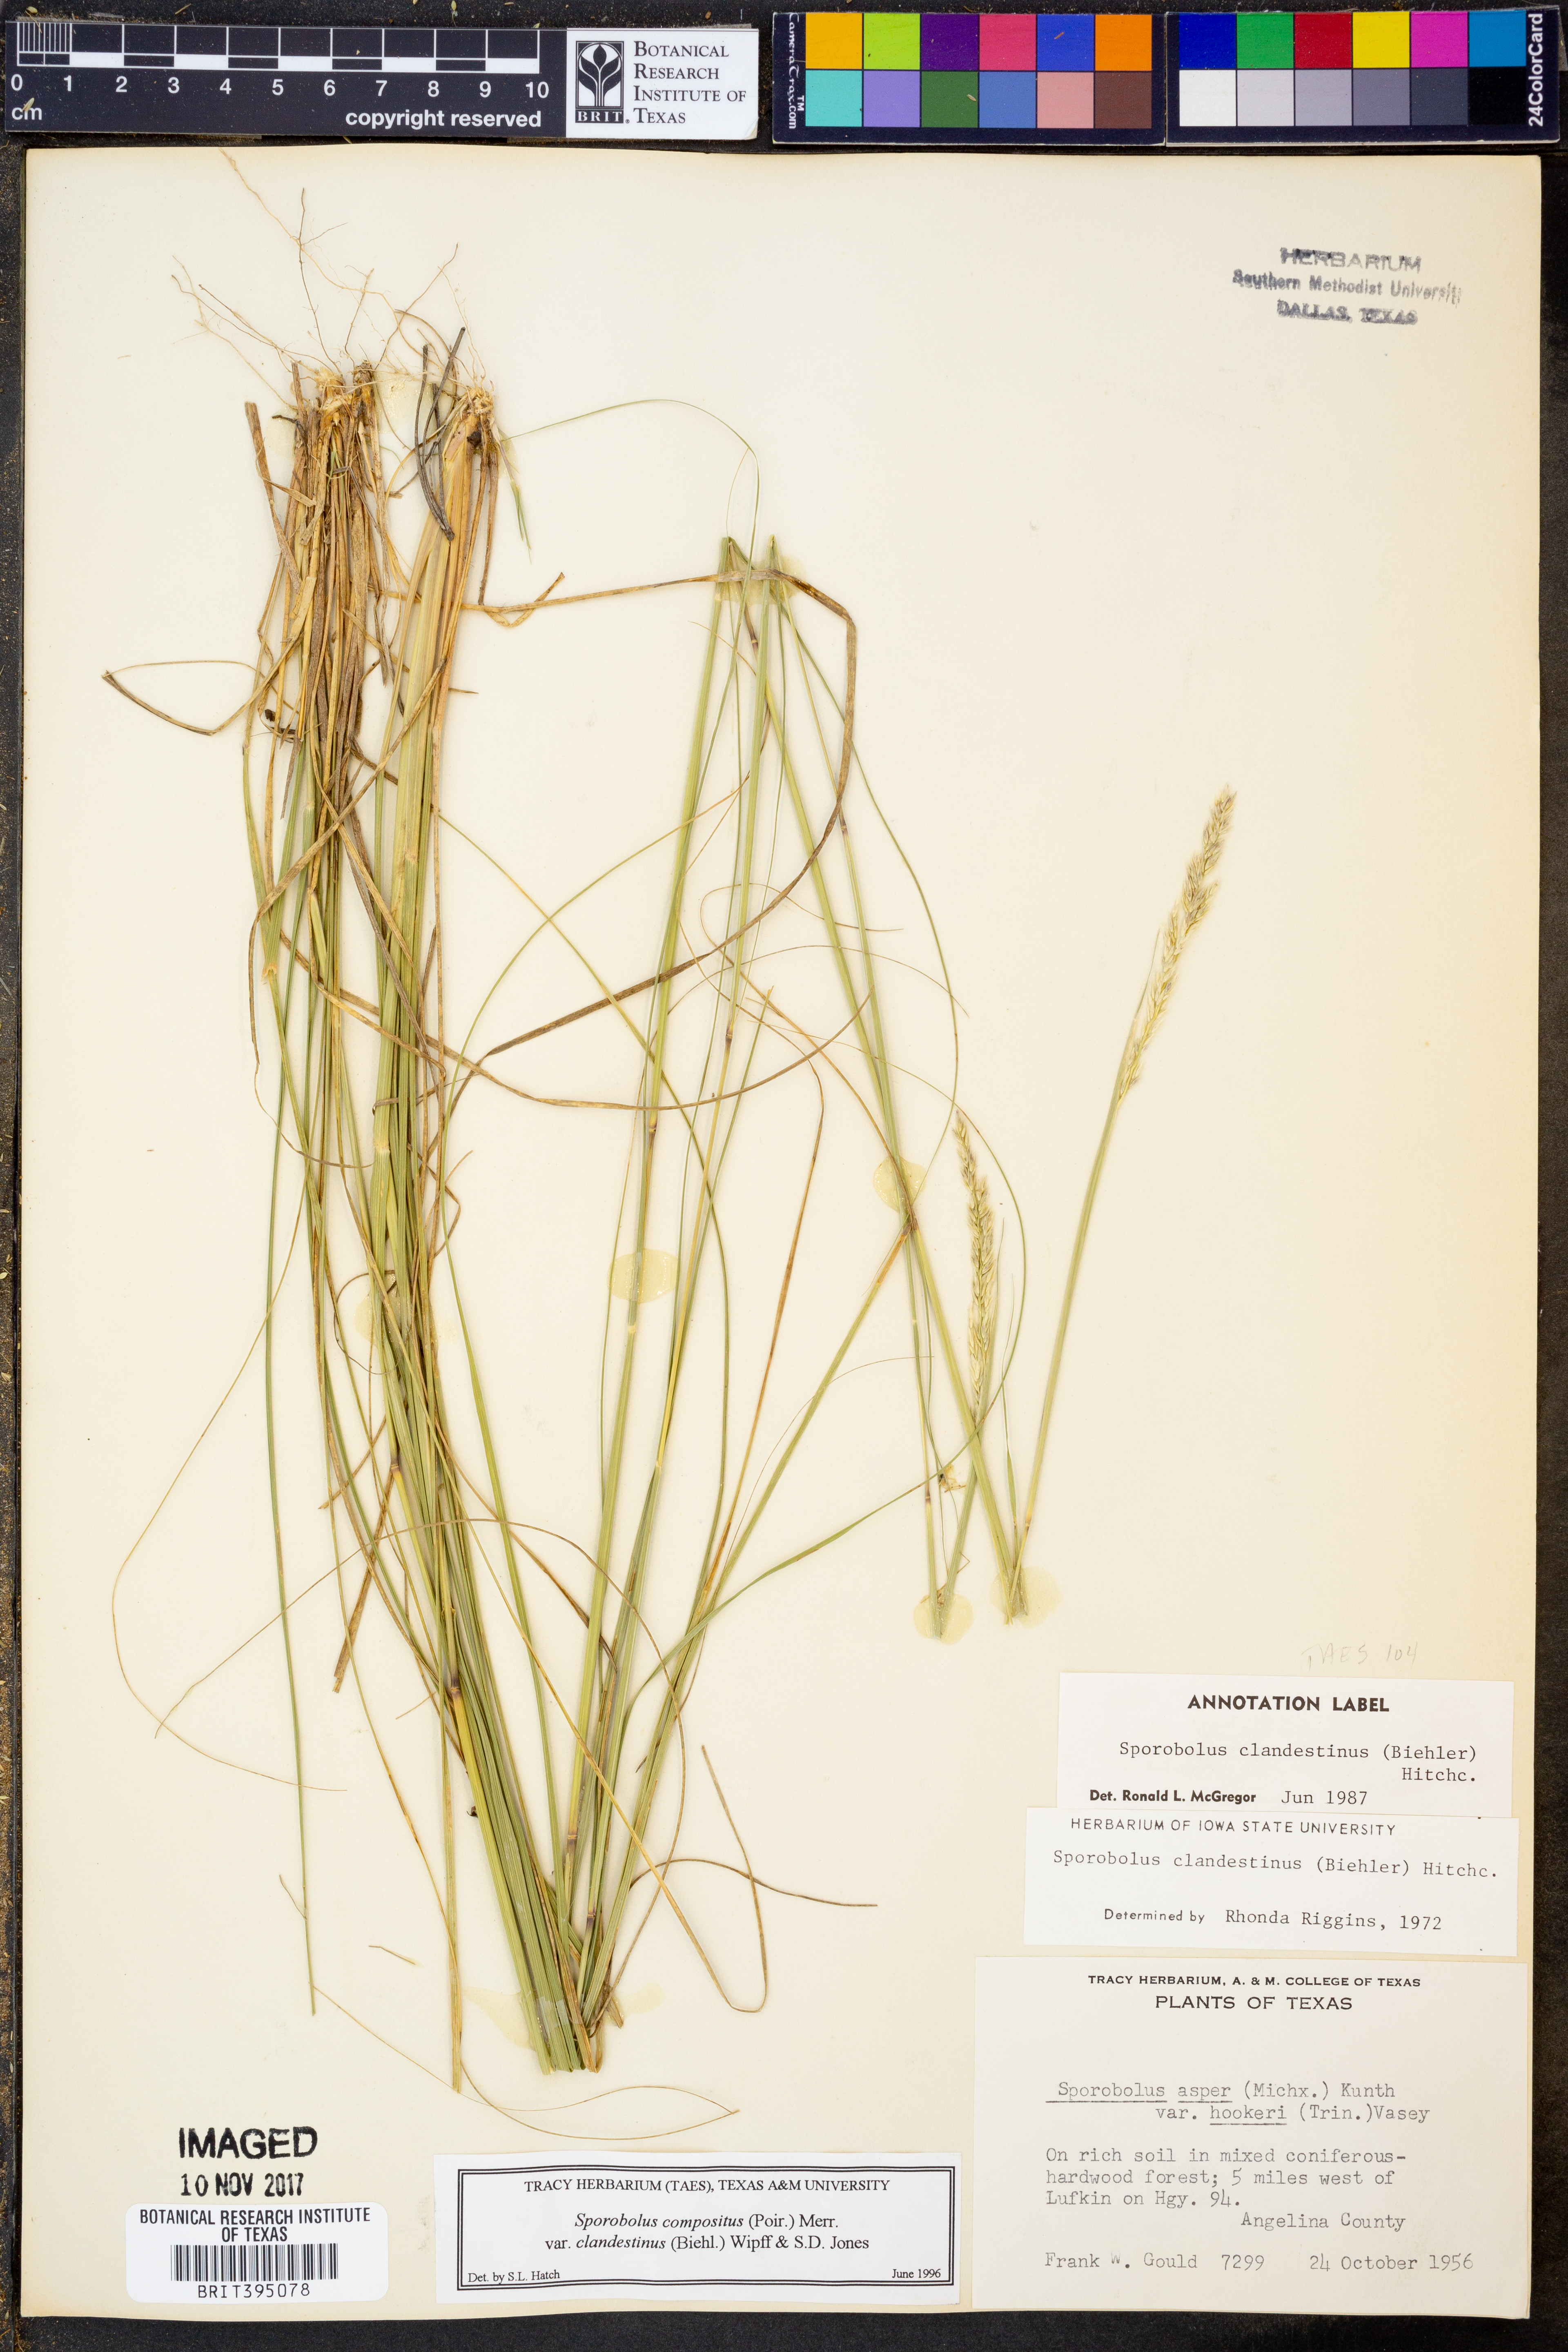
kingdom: Plantae
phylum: Tracheophyta
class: Liliopsida
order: Poales
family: Poaceae
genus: Sporobolus
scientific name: Sporobolus clandestinus
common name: Hidden dropseed
